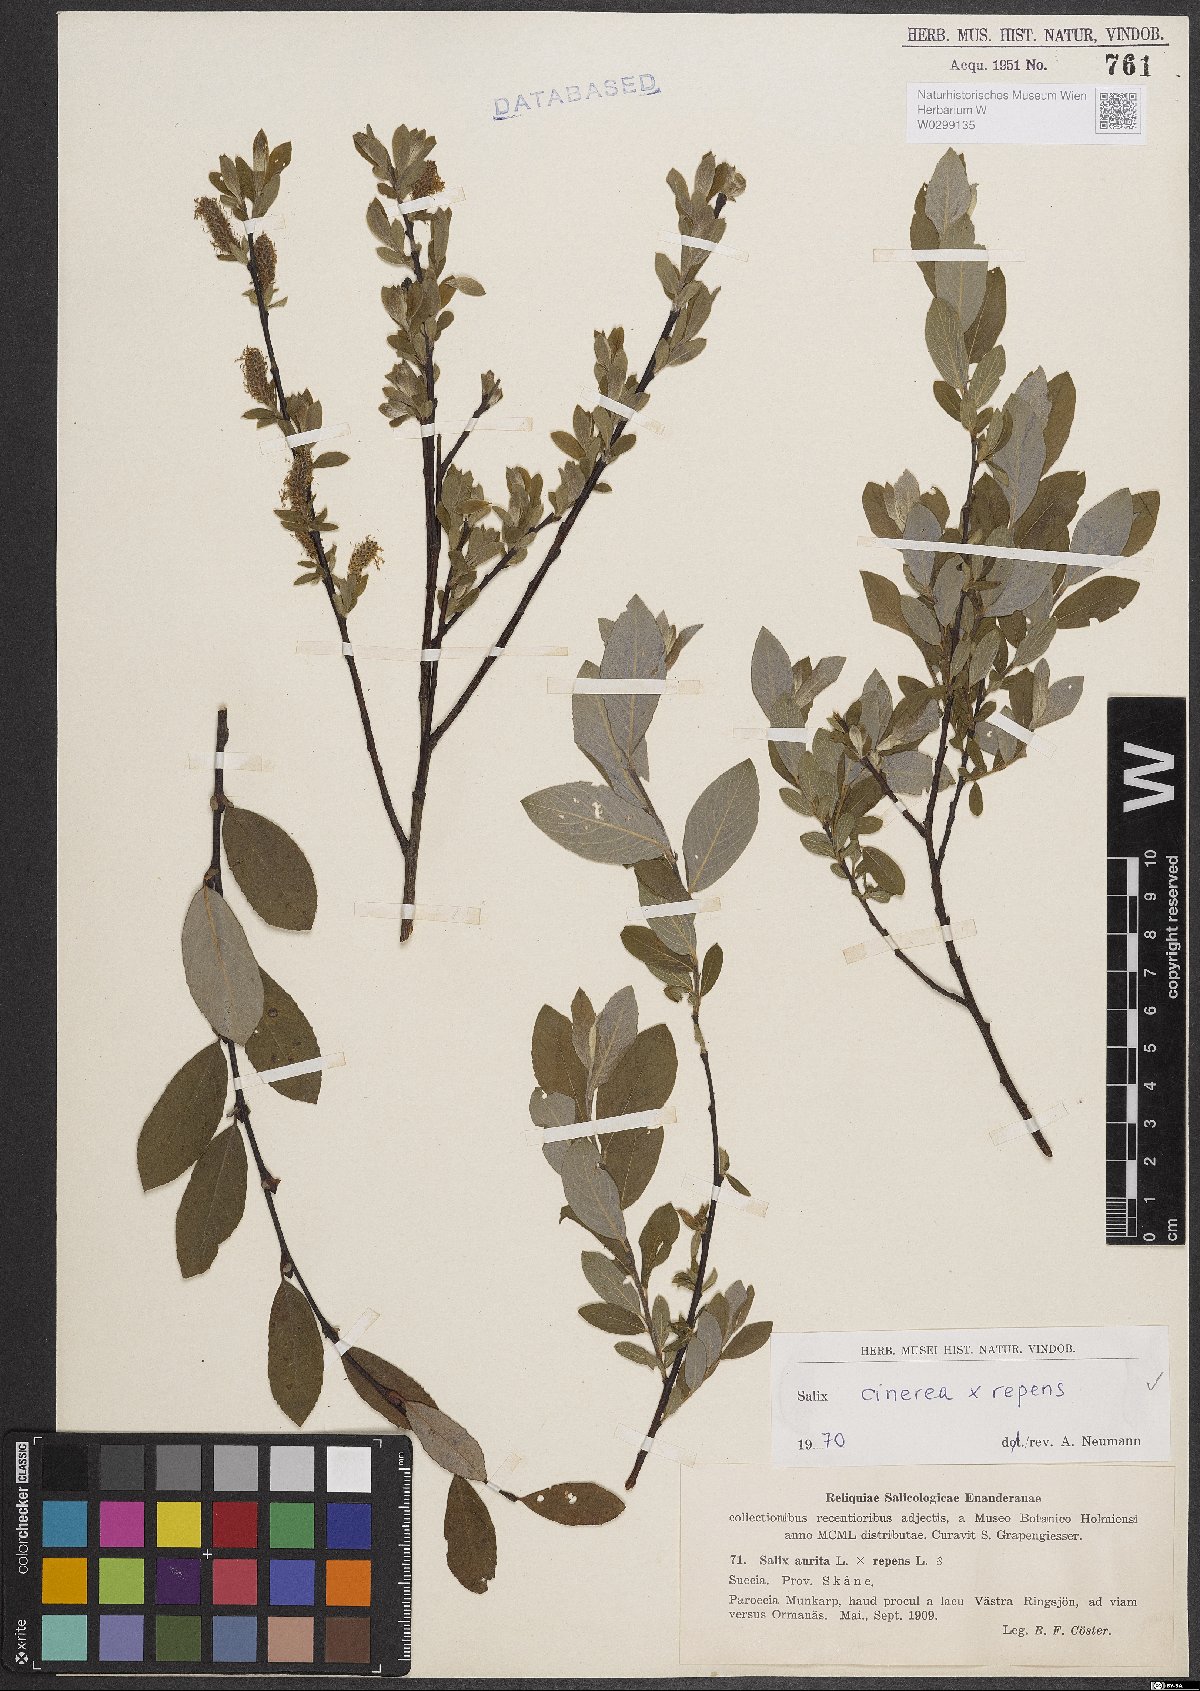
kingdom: Plantae
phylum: Tracheophyta
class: Magnoliopsida
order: Malpighiales
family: Salicaceae
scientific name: Salicaceae
